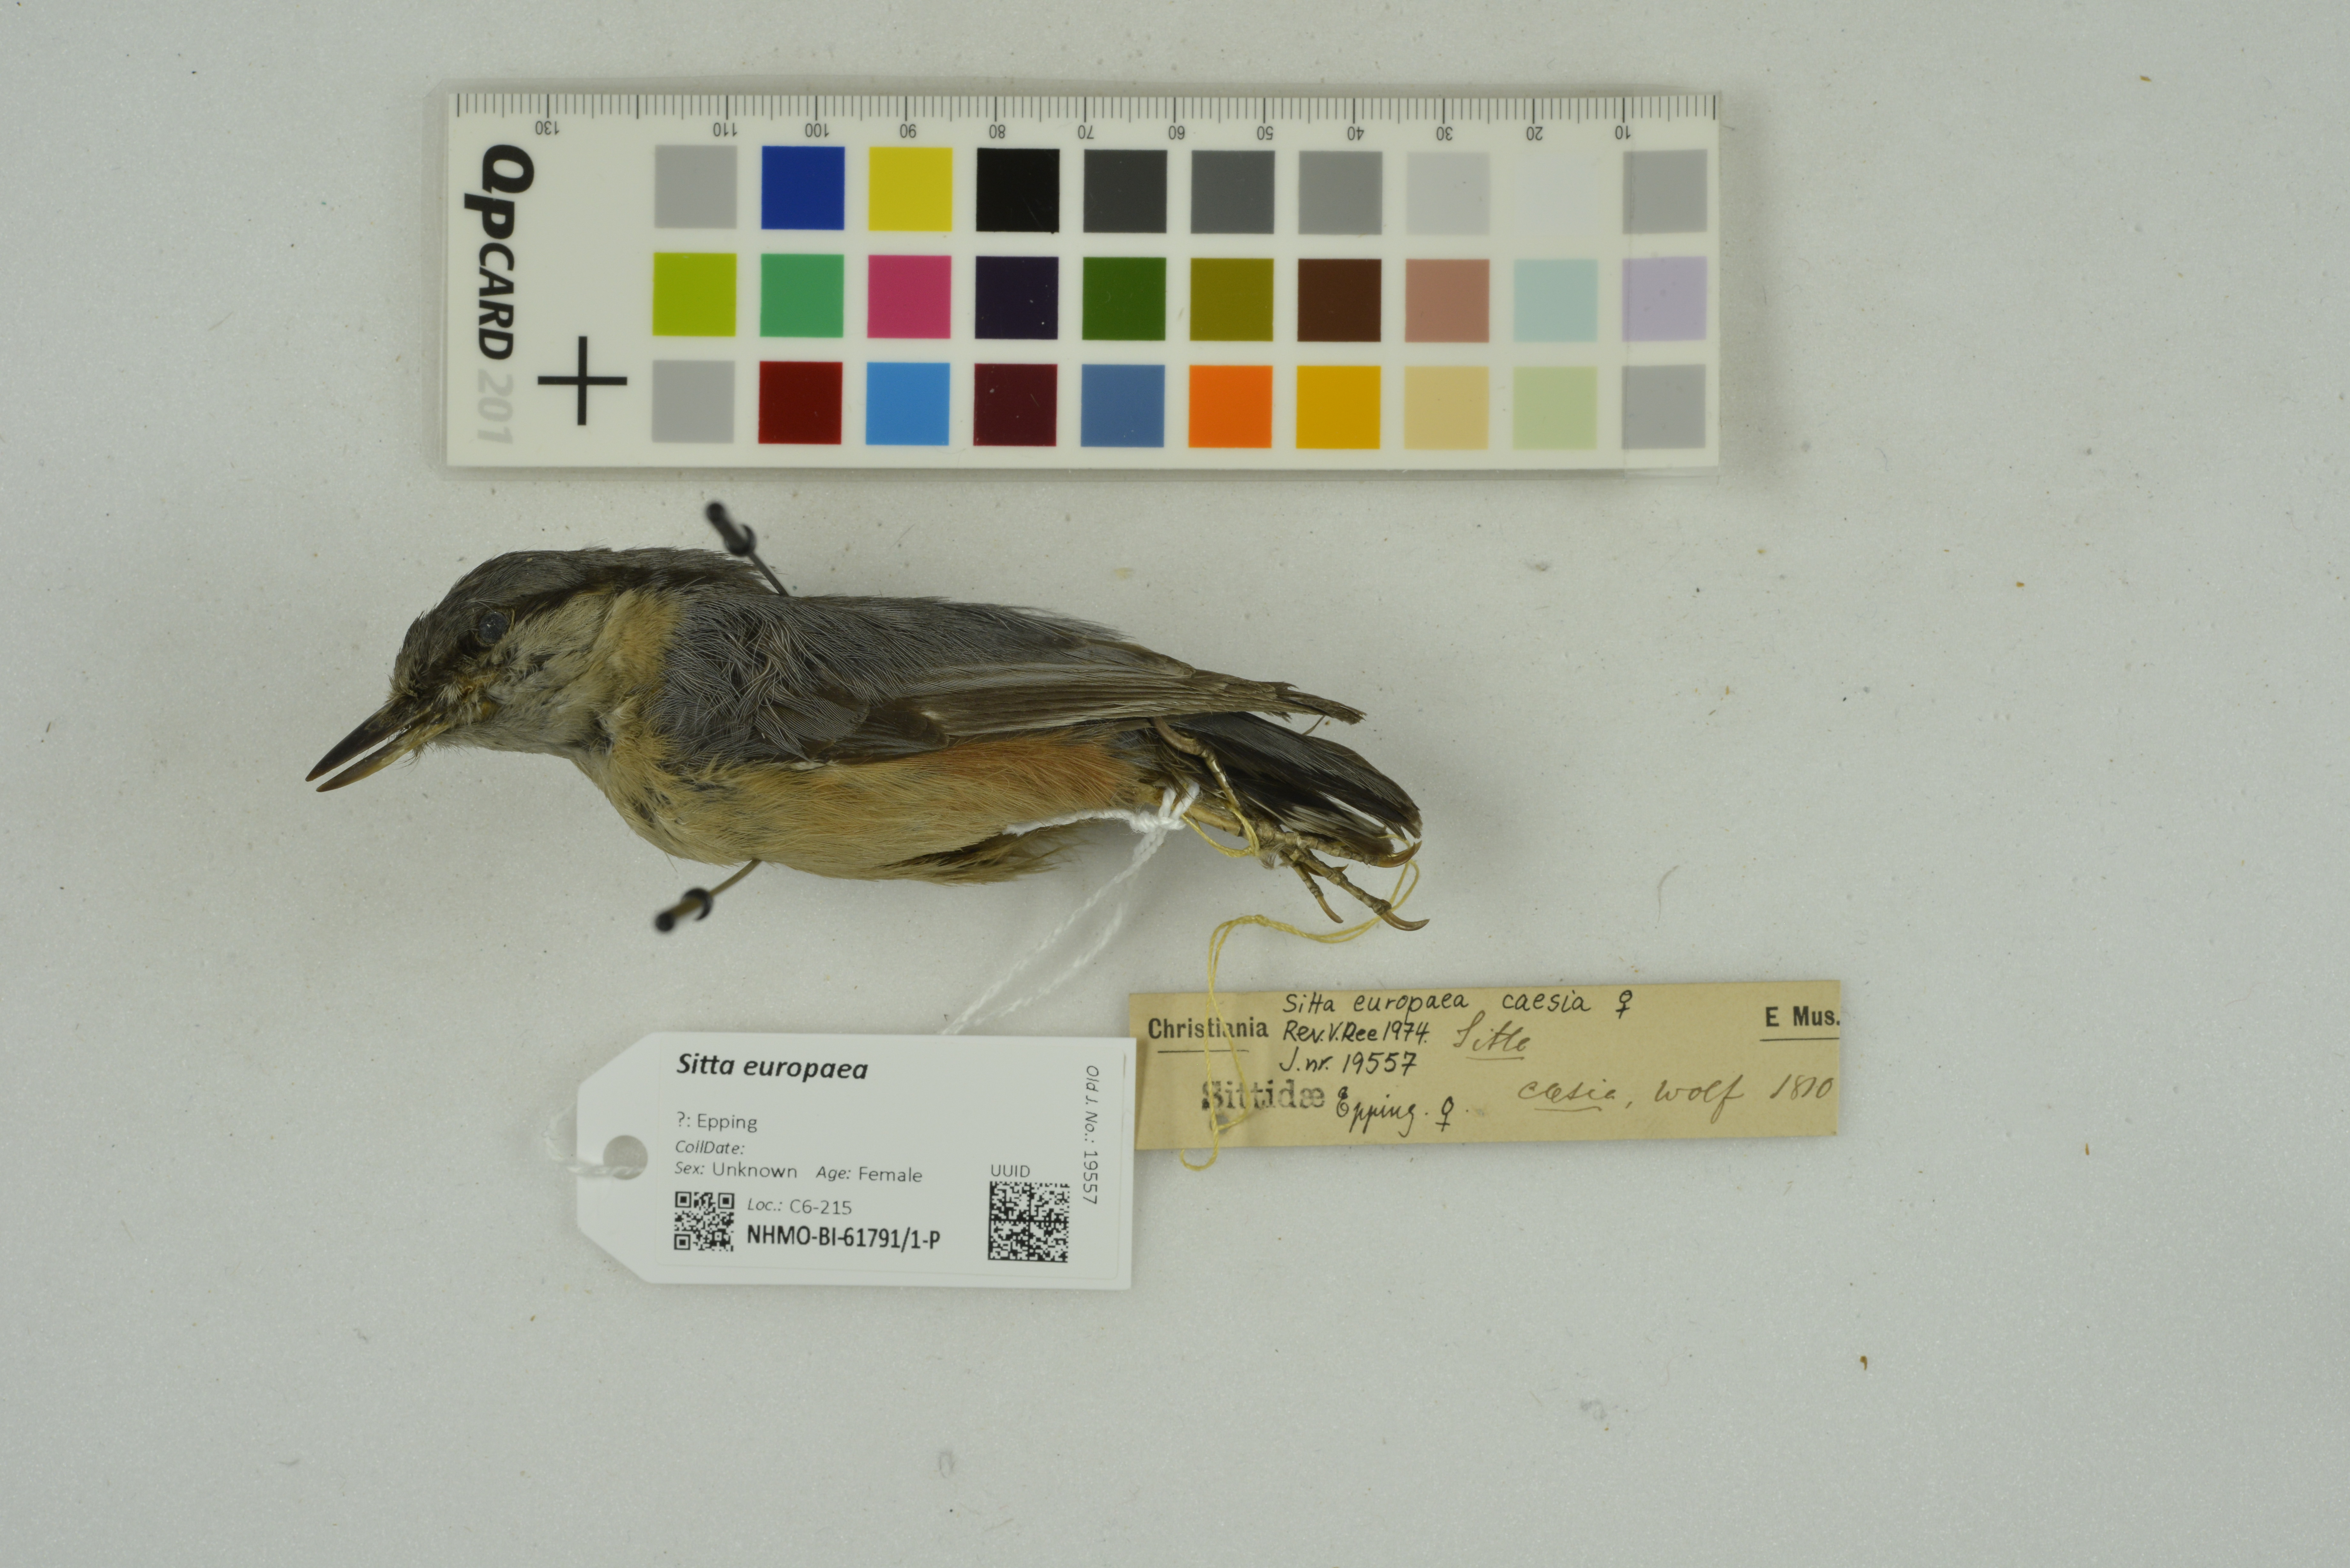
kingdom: Animalia
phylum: Chordata
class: Aves
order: Passeriformes
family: Sittidae
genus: Sitta
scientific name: Sitta europaea
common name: Eurasian nuthatch
